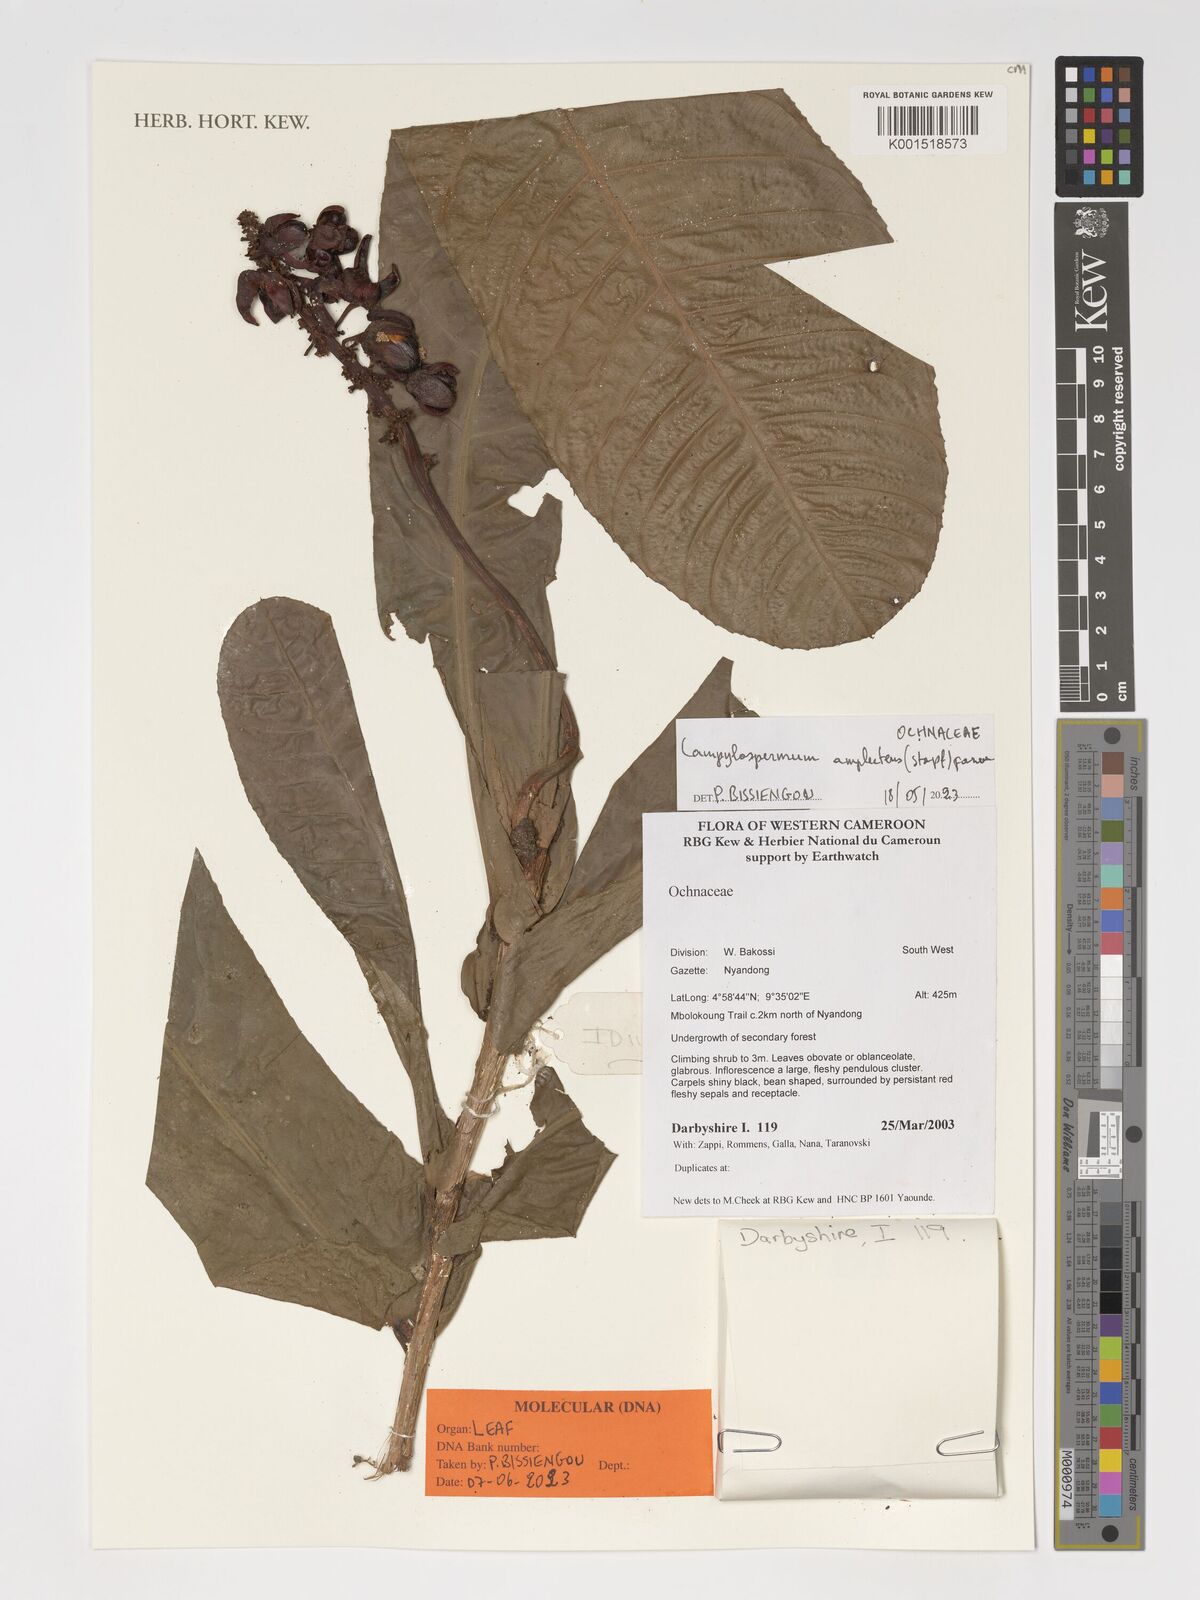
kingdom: Plantae
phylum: Tracheophyta
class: Magnoliopsida
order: Malpighiales
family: Ochnaceae
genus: Campylospermum
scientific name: Campylospermum amplectens
